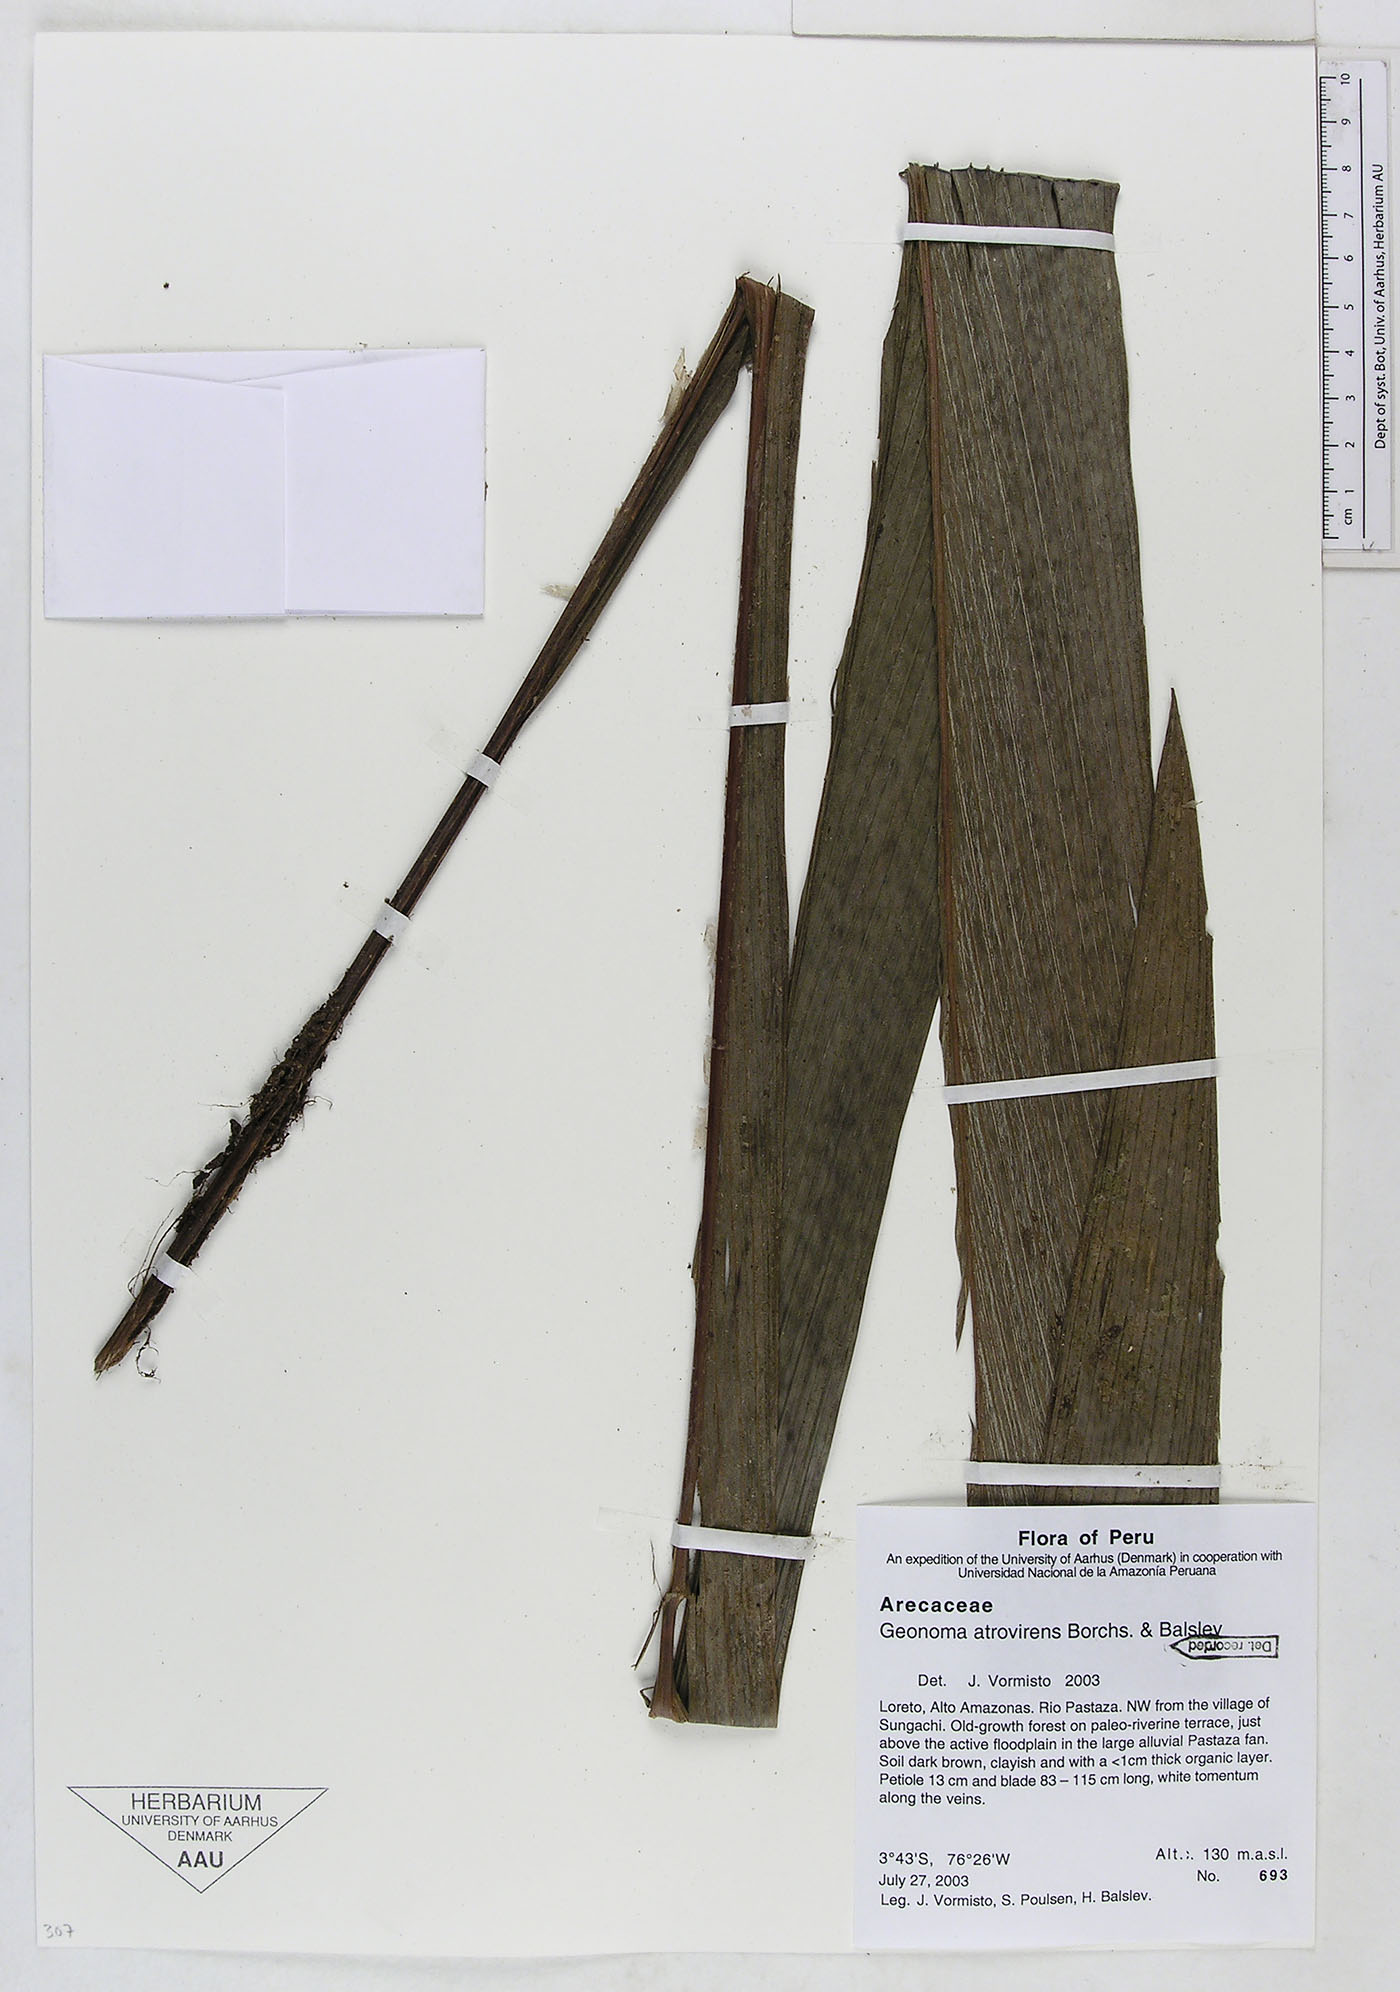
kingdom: Plantae
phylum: Tracheophyta
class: Liliopsida
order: Arecales
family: Arecaceae
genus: Geonoma
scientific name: Geonoma macrostachys
